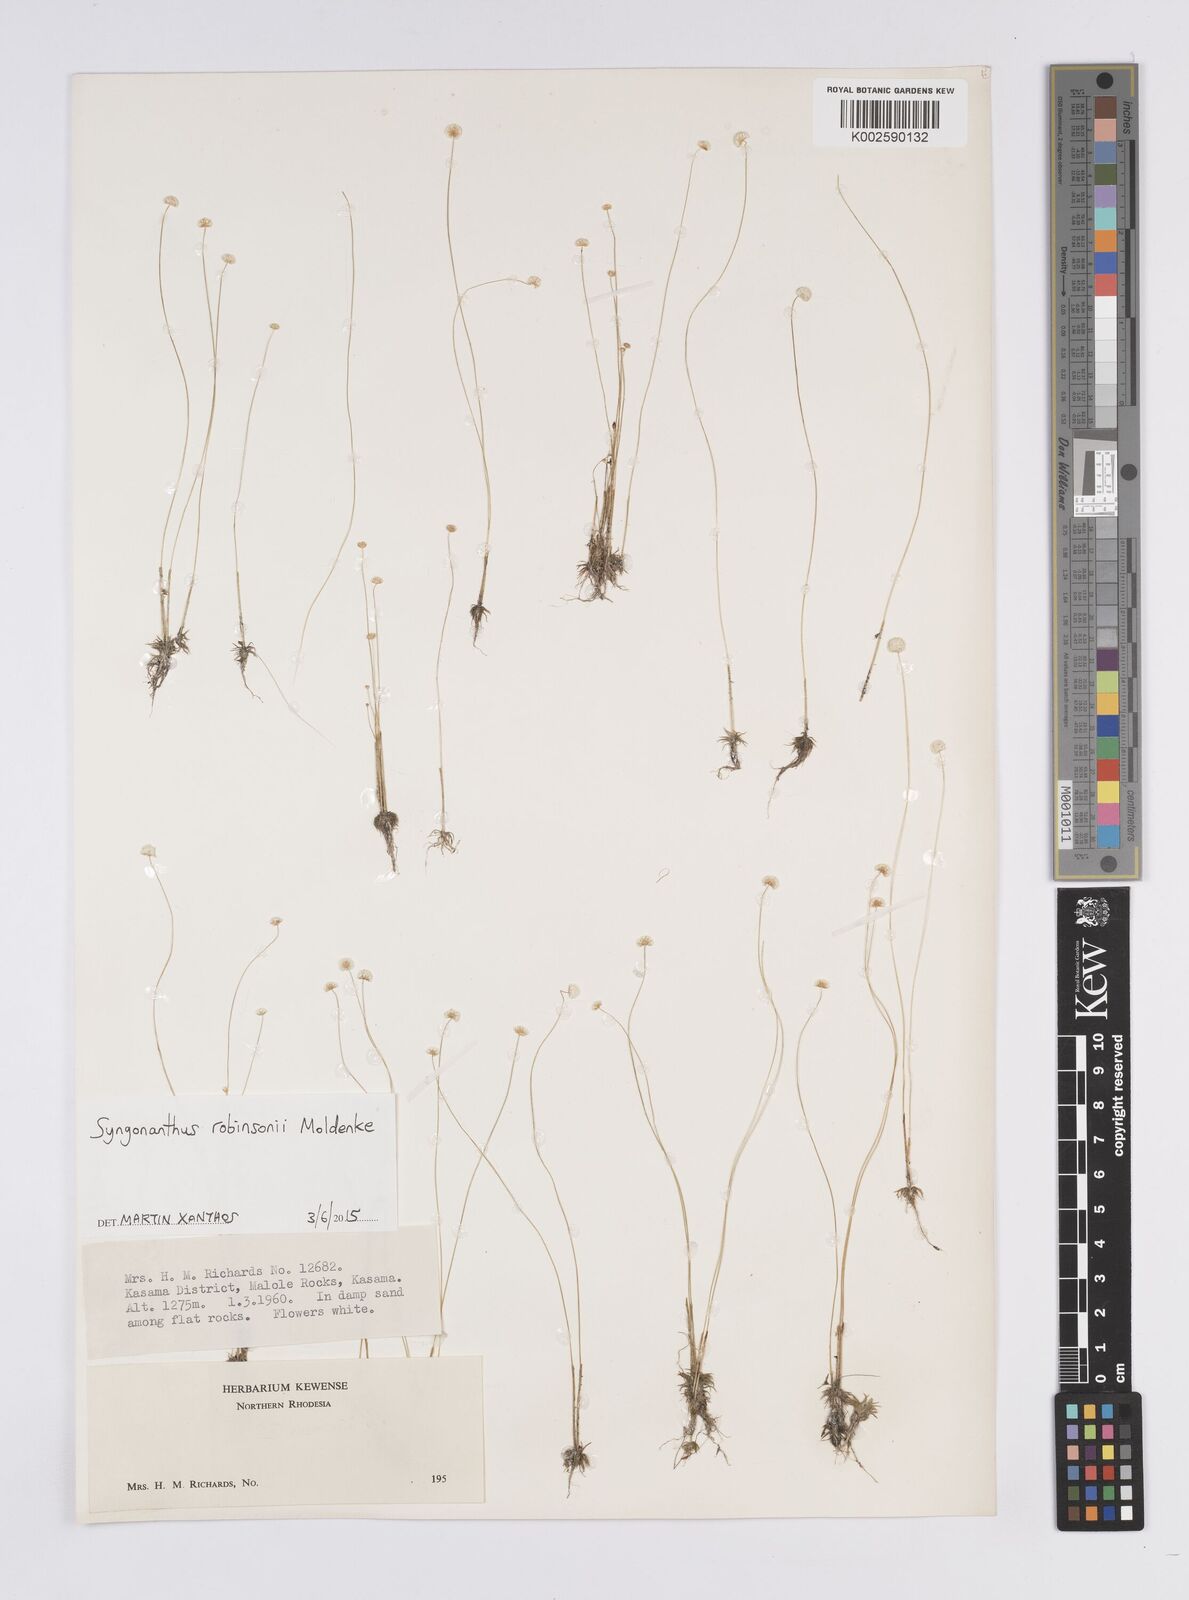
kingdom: Plantae
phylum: Tracheophyta
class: Liliopsida
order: Poales
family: Eriocaulaceae
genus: Syngonanthus
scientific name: Syngonanthus robinsonii
